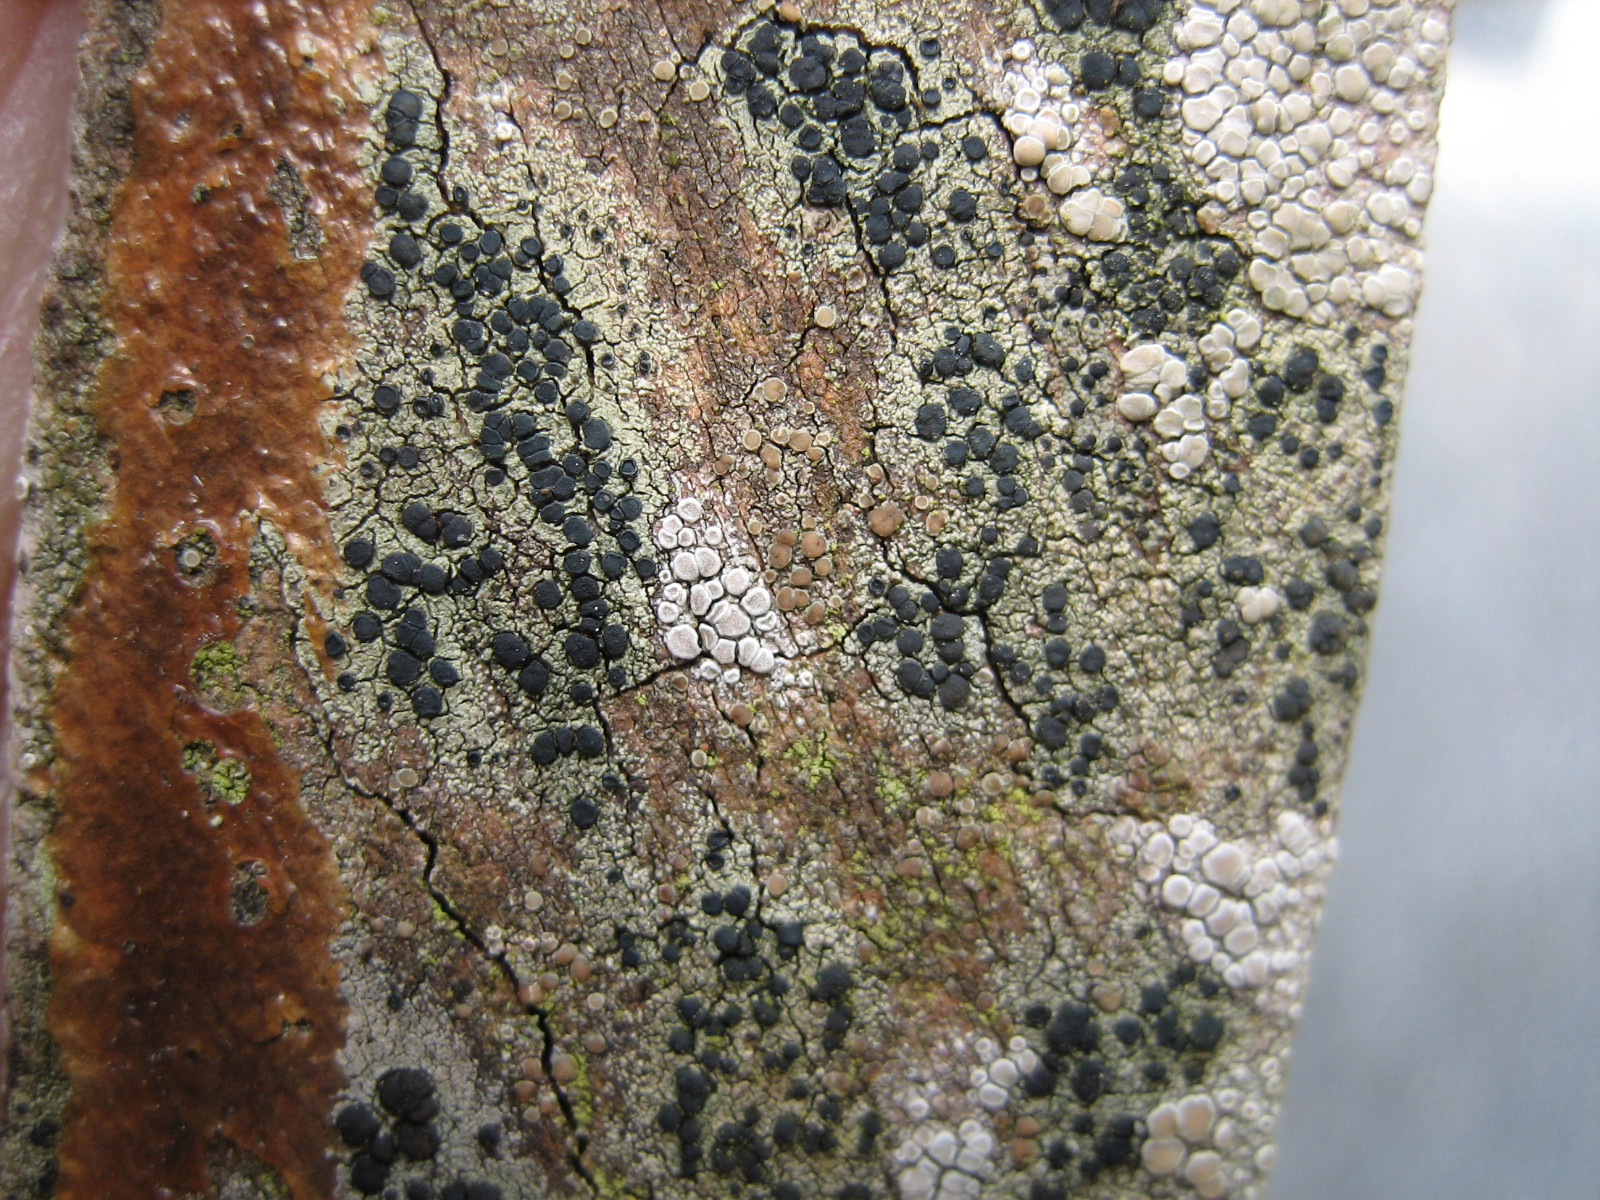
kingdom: Fungi
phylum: Ascomycota
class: Lecanoromycetes
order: Lecanorales
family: Lecanoraceae
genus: Lecidella
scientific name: Lecidella elaeochroma
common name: grågrøn skivelav
